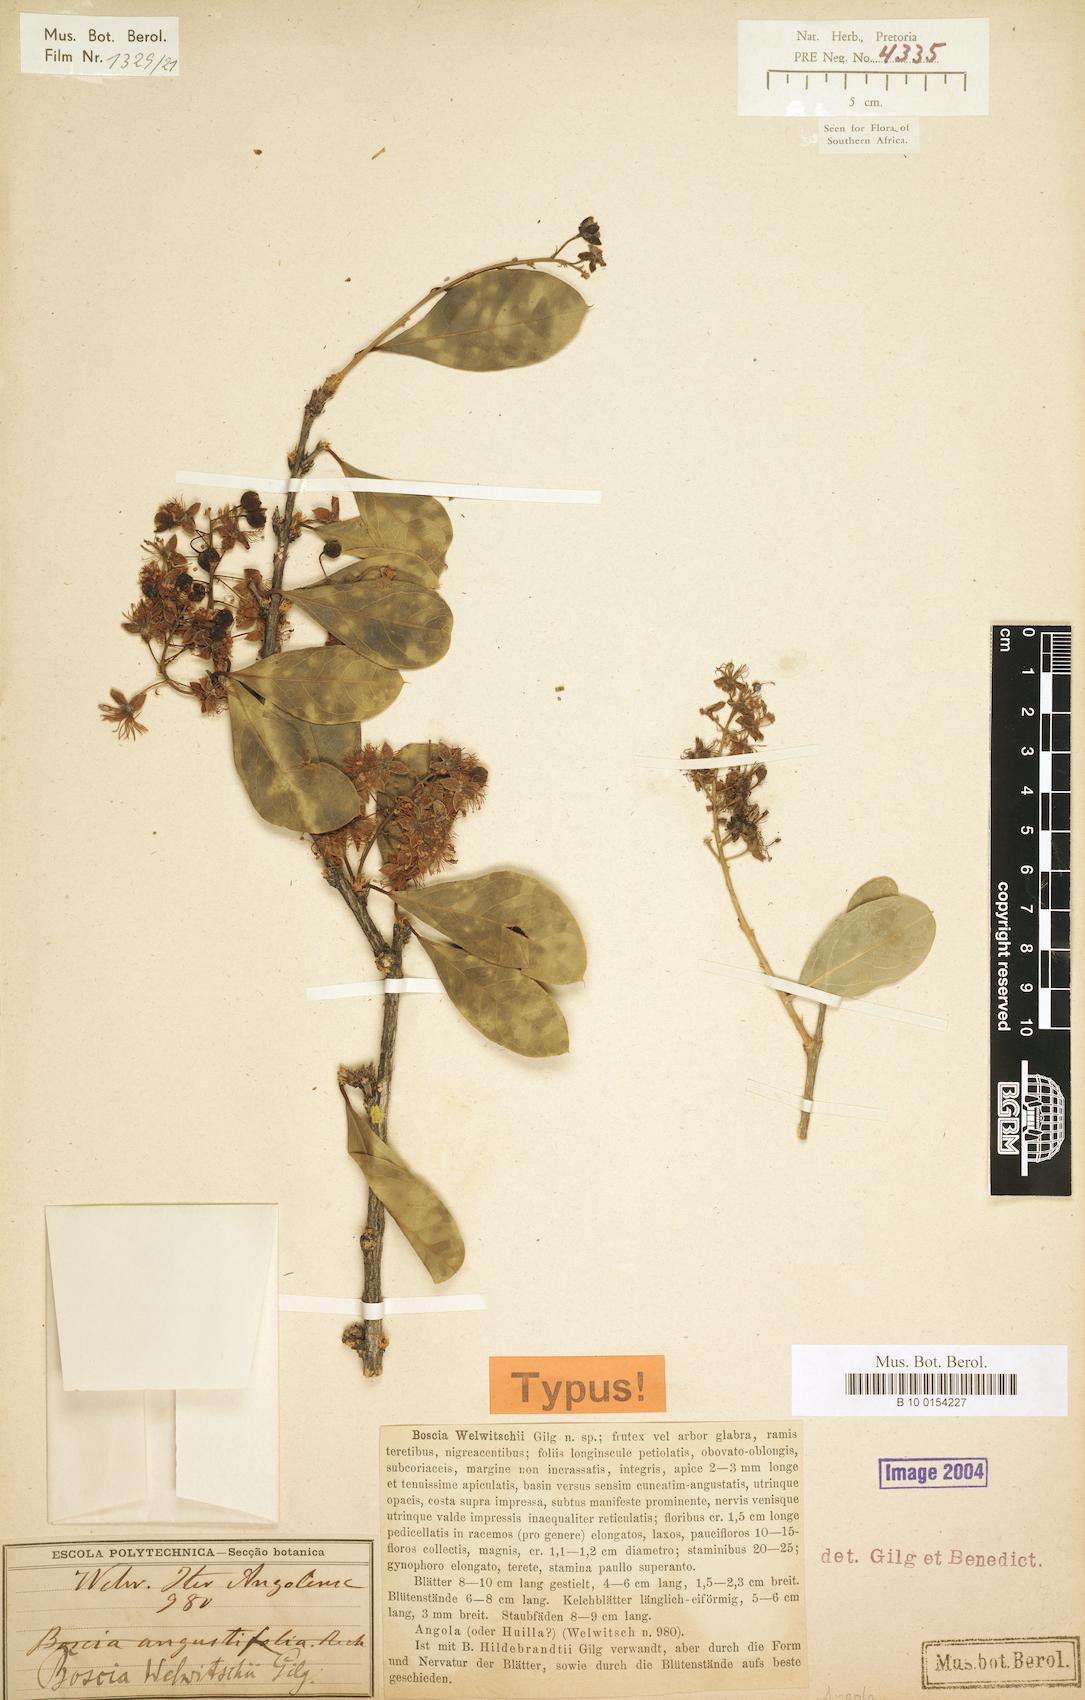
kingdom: Plantae
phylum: Tracheophyta
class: Magnoliopsida
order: Brassicales
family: Capparaceae
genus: Boscia
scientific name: Boscia welwitschii
